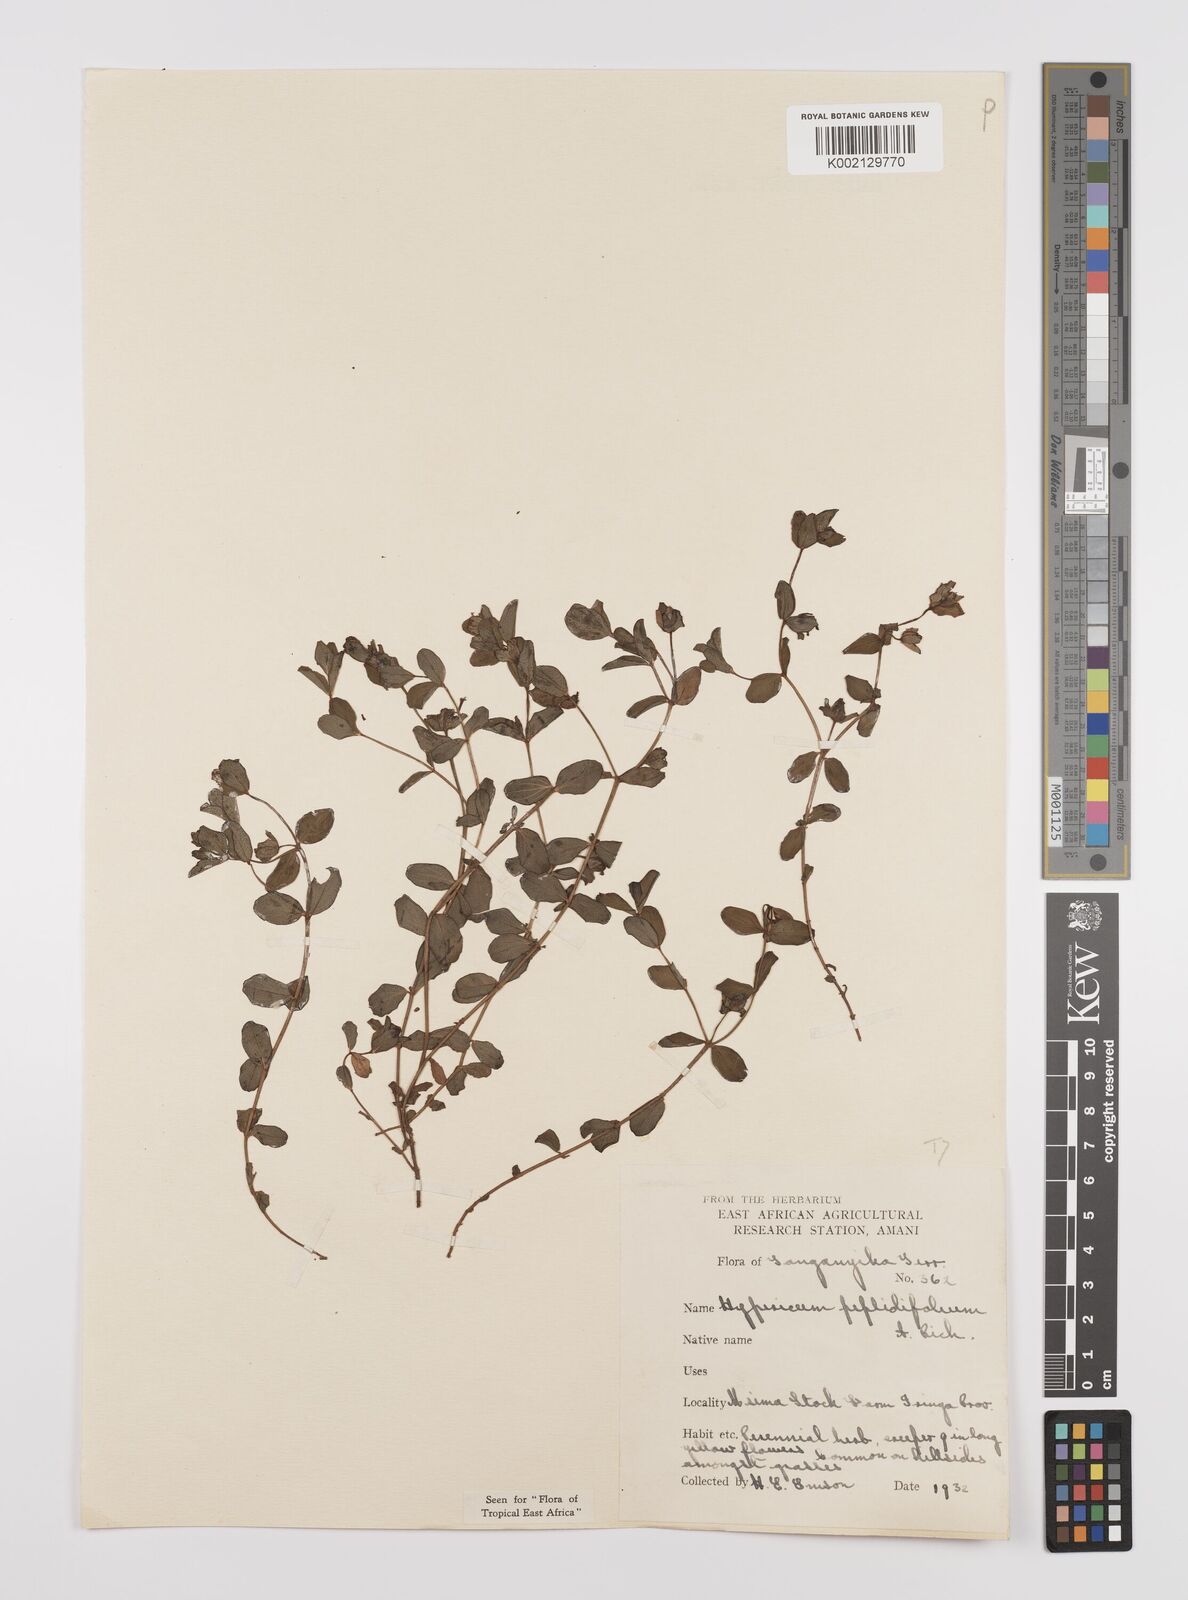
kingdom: Plantae
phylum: Tracheophyta
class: Magnoliopsida
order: Malpighiales
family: Hypericaceae
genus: Hypericum
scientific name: Hypericum peplidifolium
